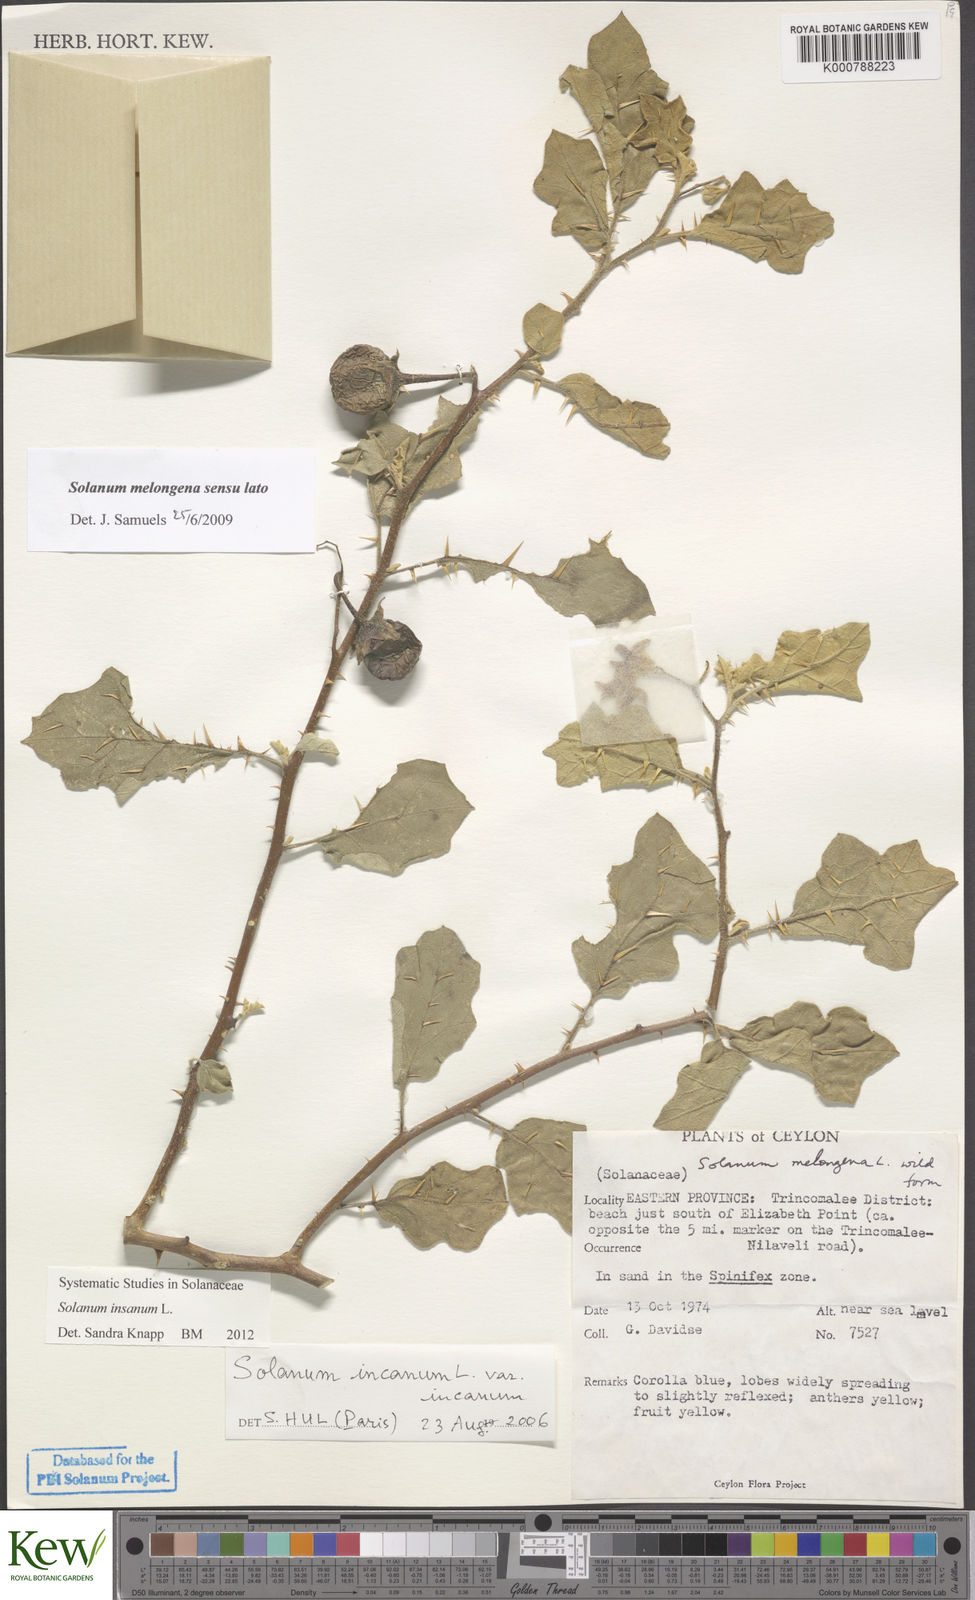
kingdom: Plantae
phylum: Tracheophyta
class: Magnoliopsida
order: Solanales
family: Solanaceae
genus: Solanum
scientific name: Solanum insanum
